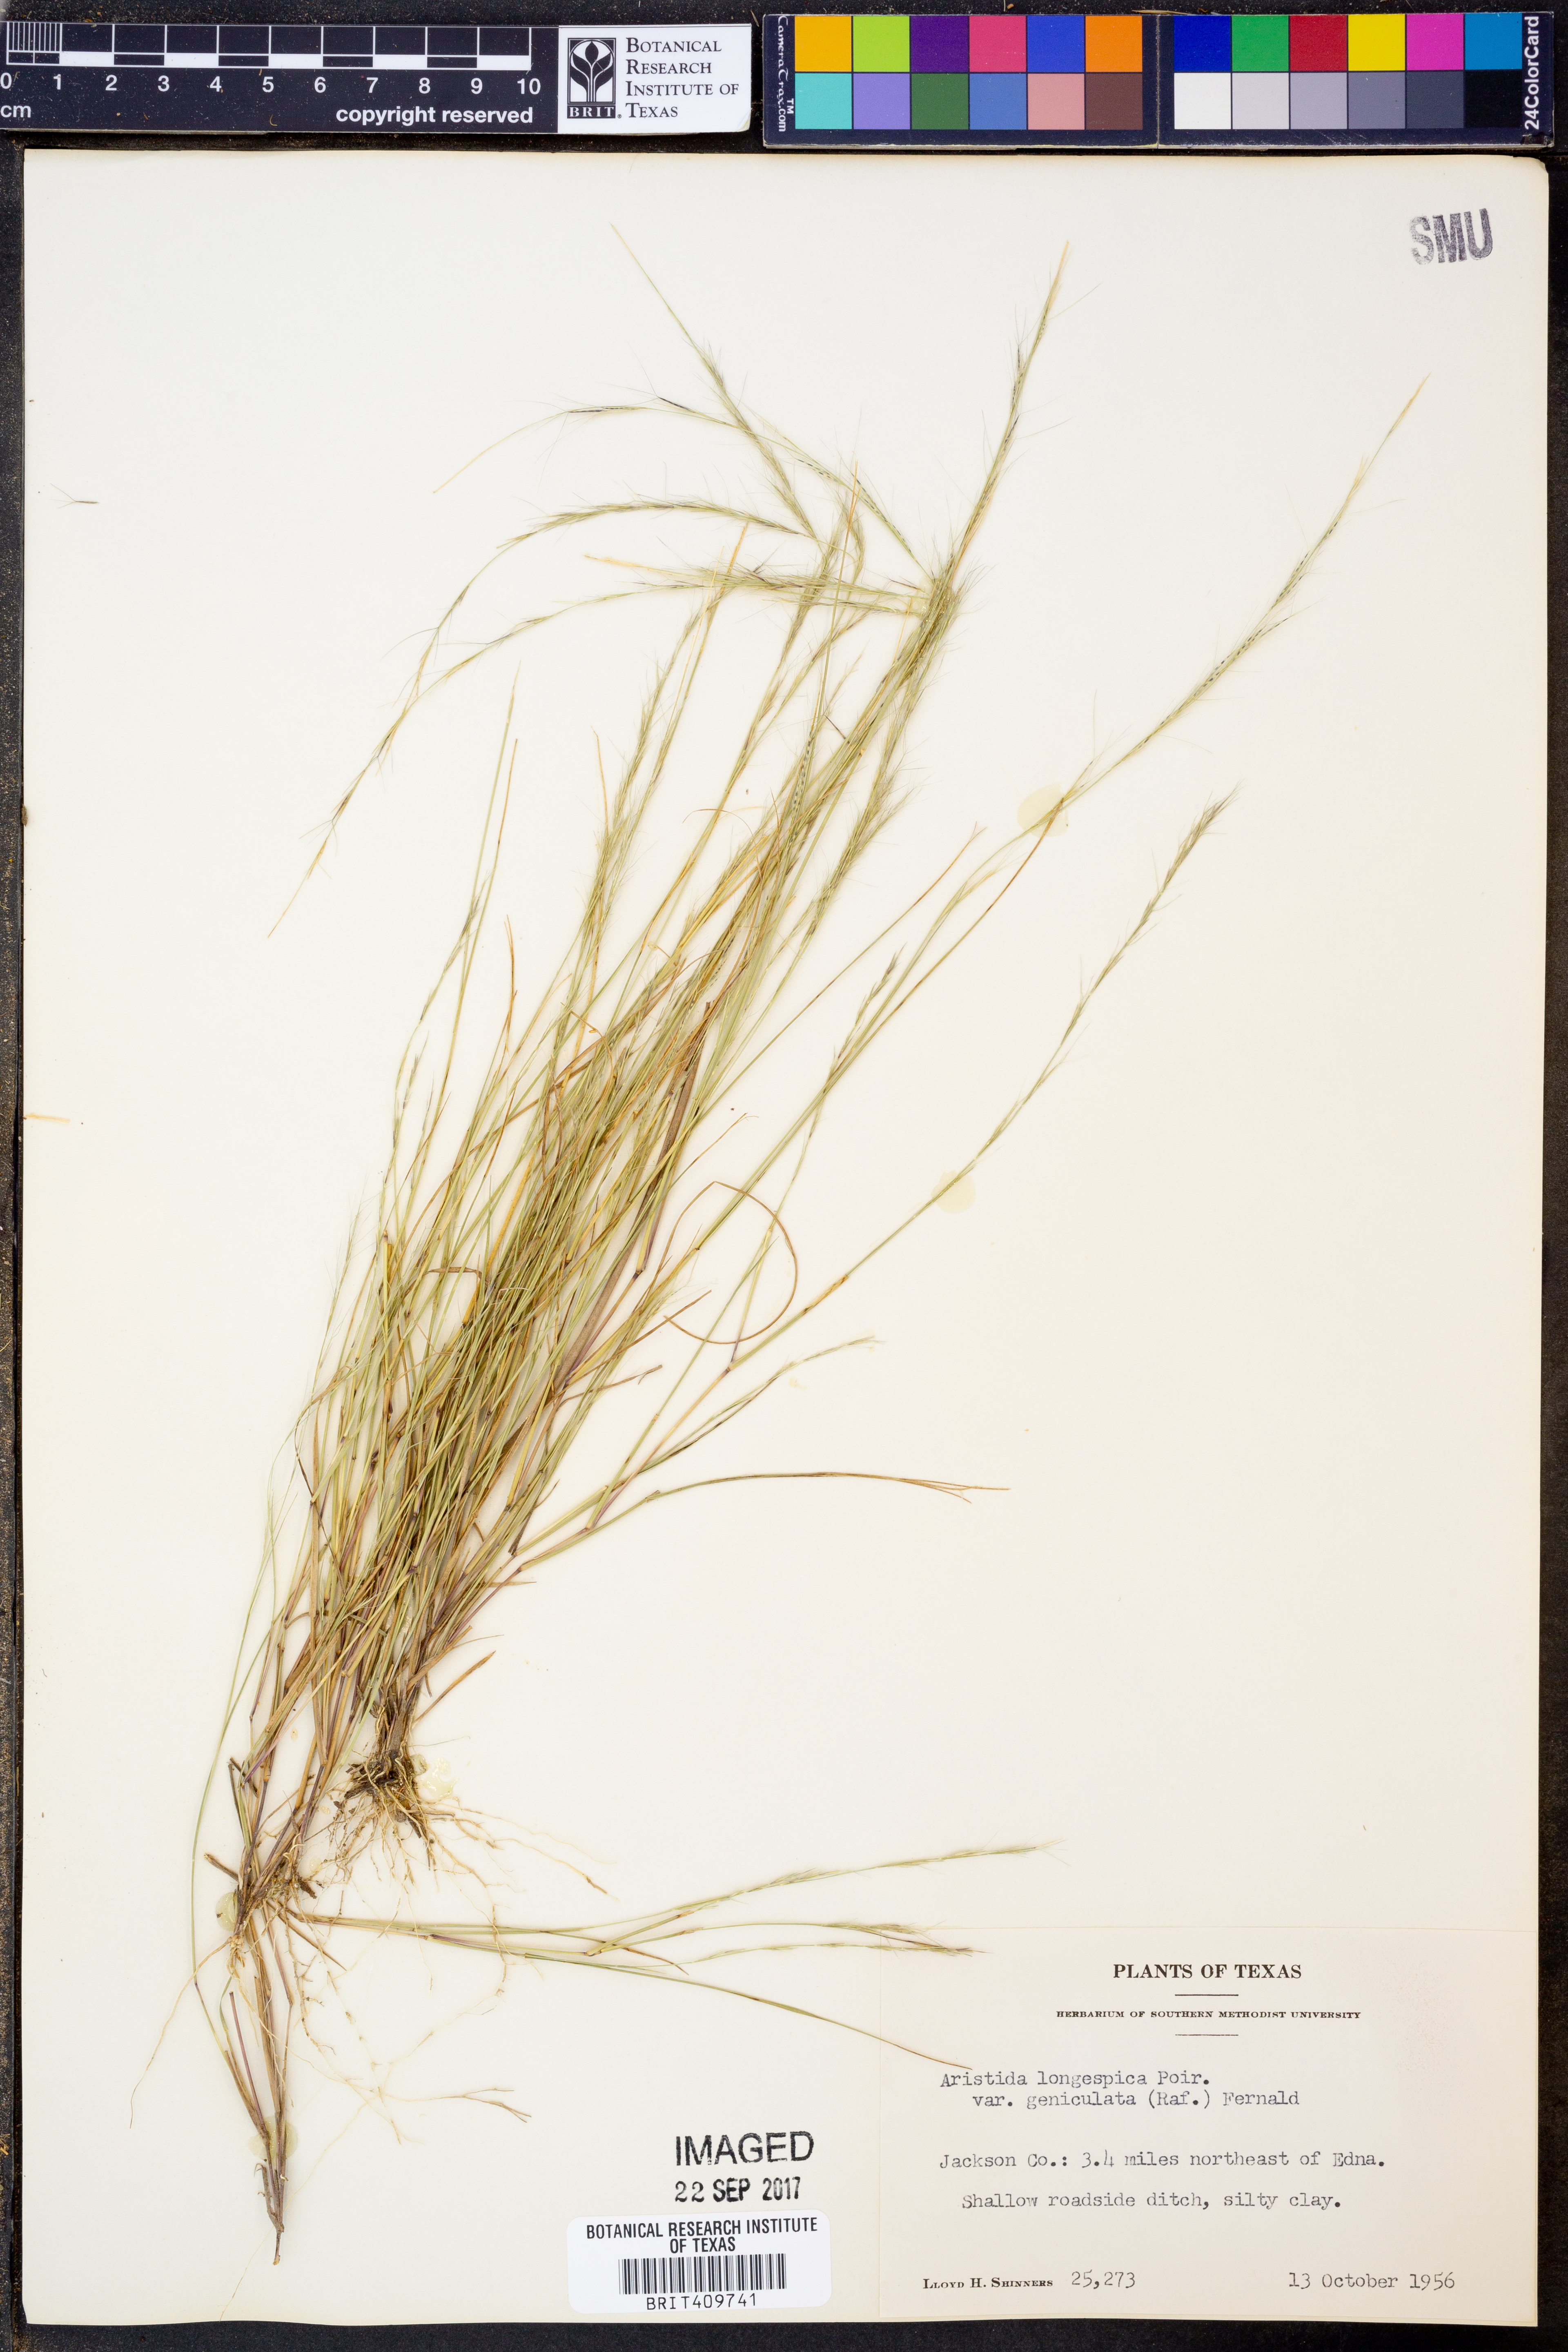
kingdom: Plantae
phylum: Tracheophyta
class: Liliopsida
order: Poales
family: Poaceae
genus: Aristida
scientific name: Aristida longespica
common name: Long-spiked triple-awned grass
